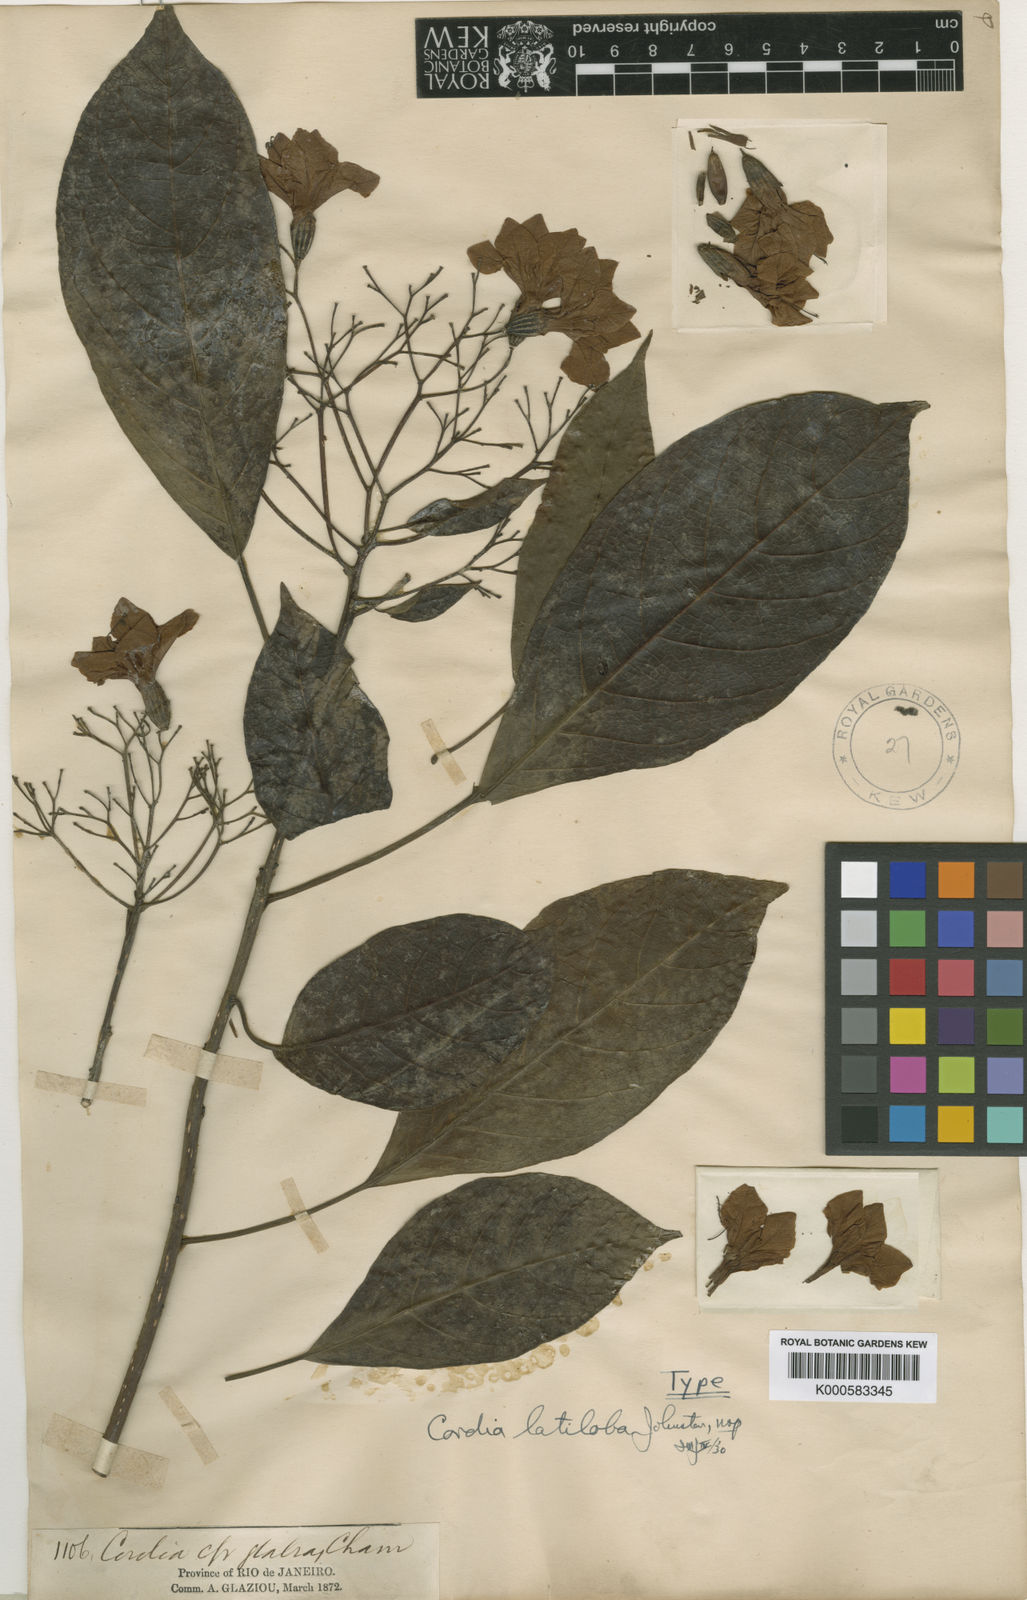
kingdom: Plantae
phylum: Tracheophyta
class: Magnoliopsida
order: Boraginales
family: Cordiaceae
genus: Cordia
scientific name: Cordia latiloba
